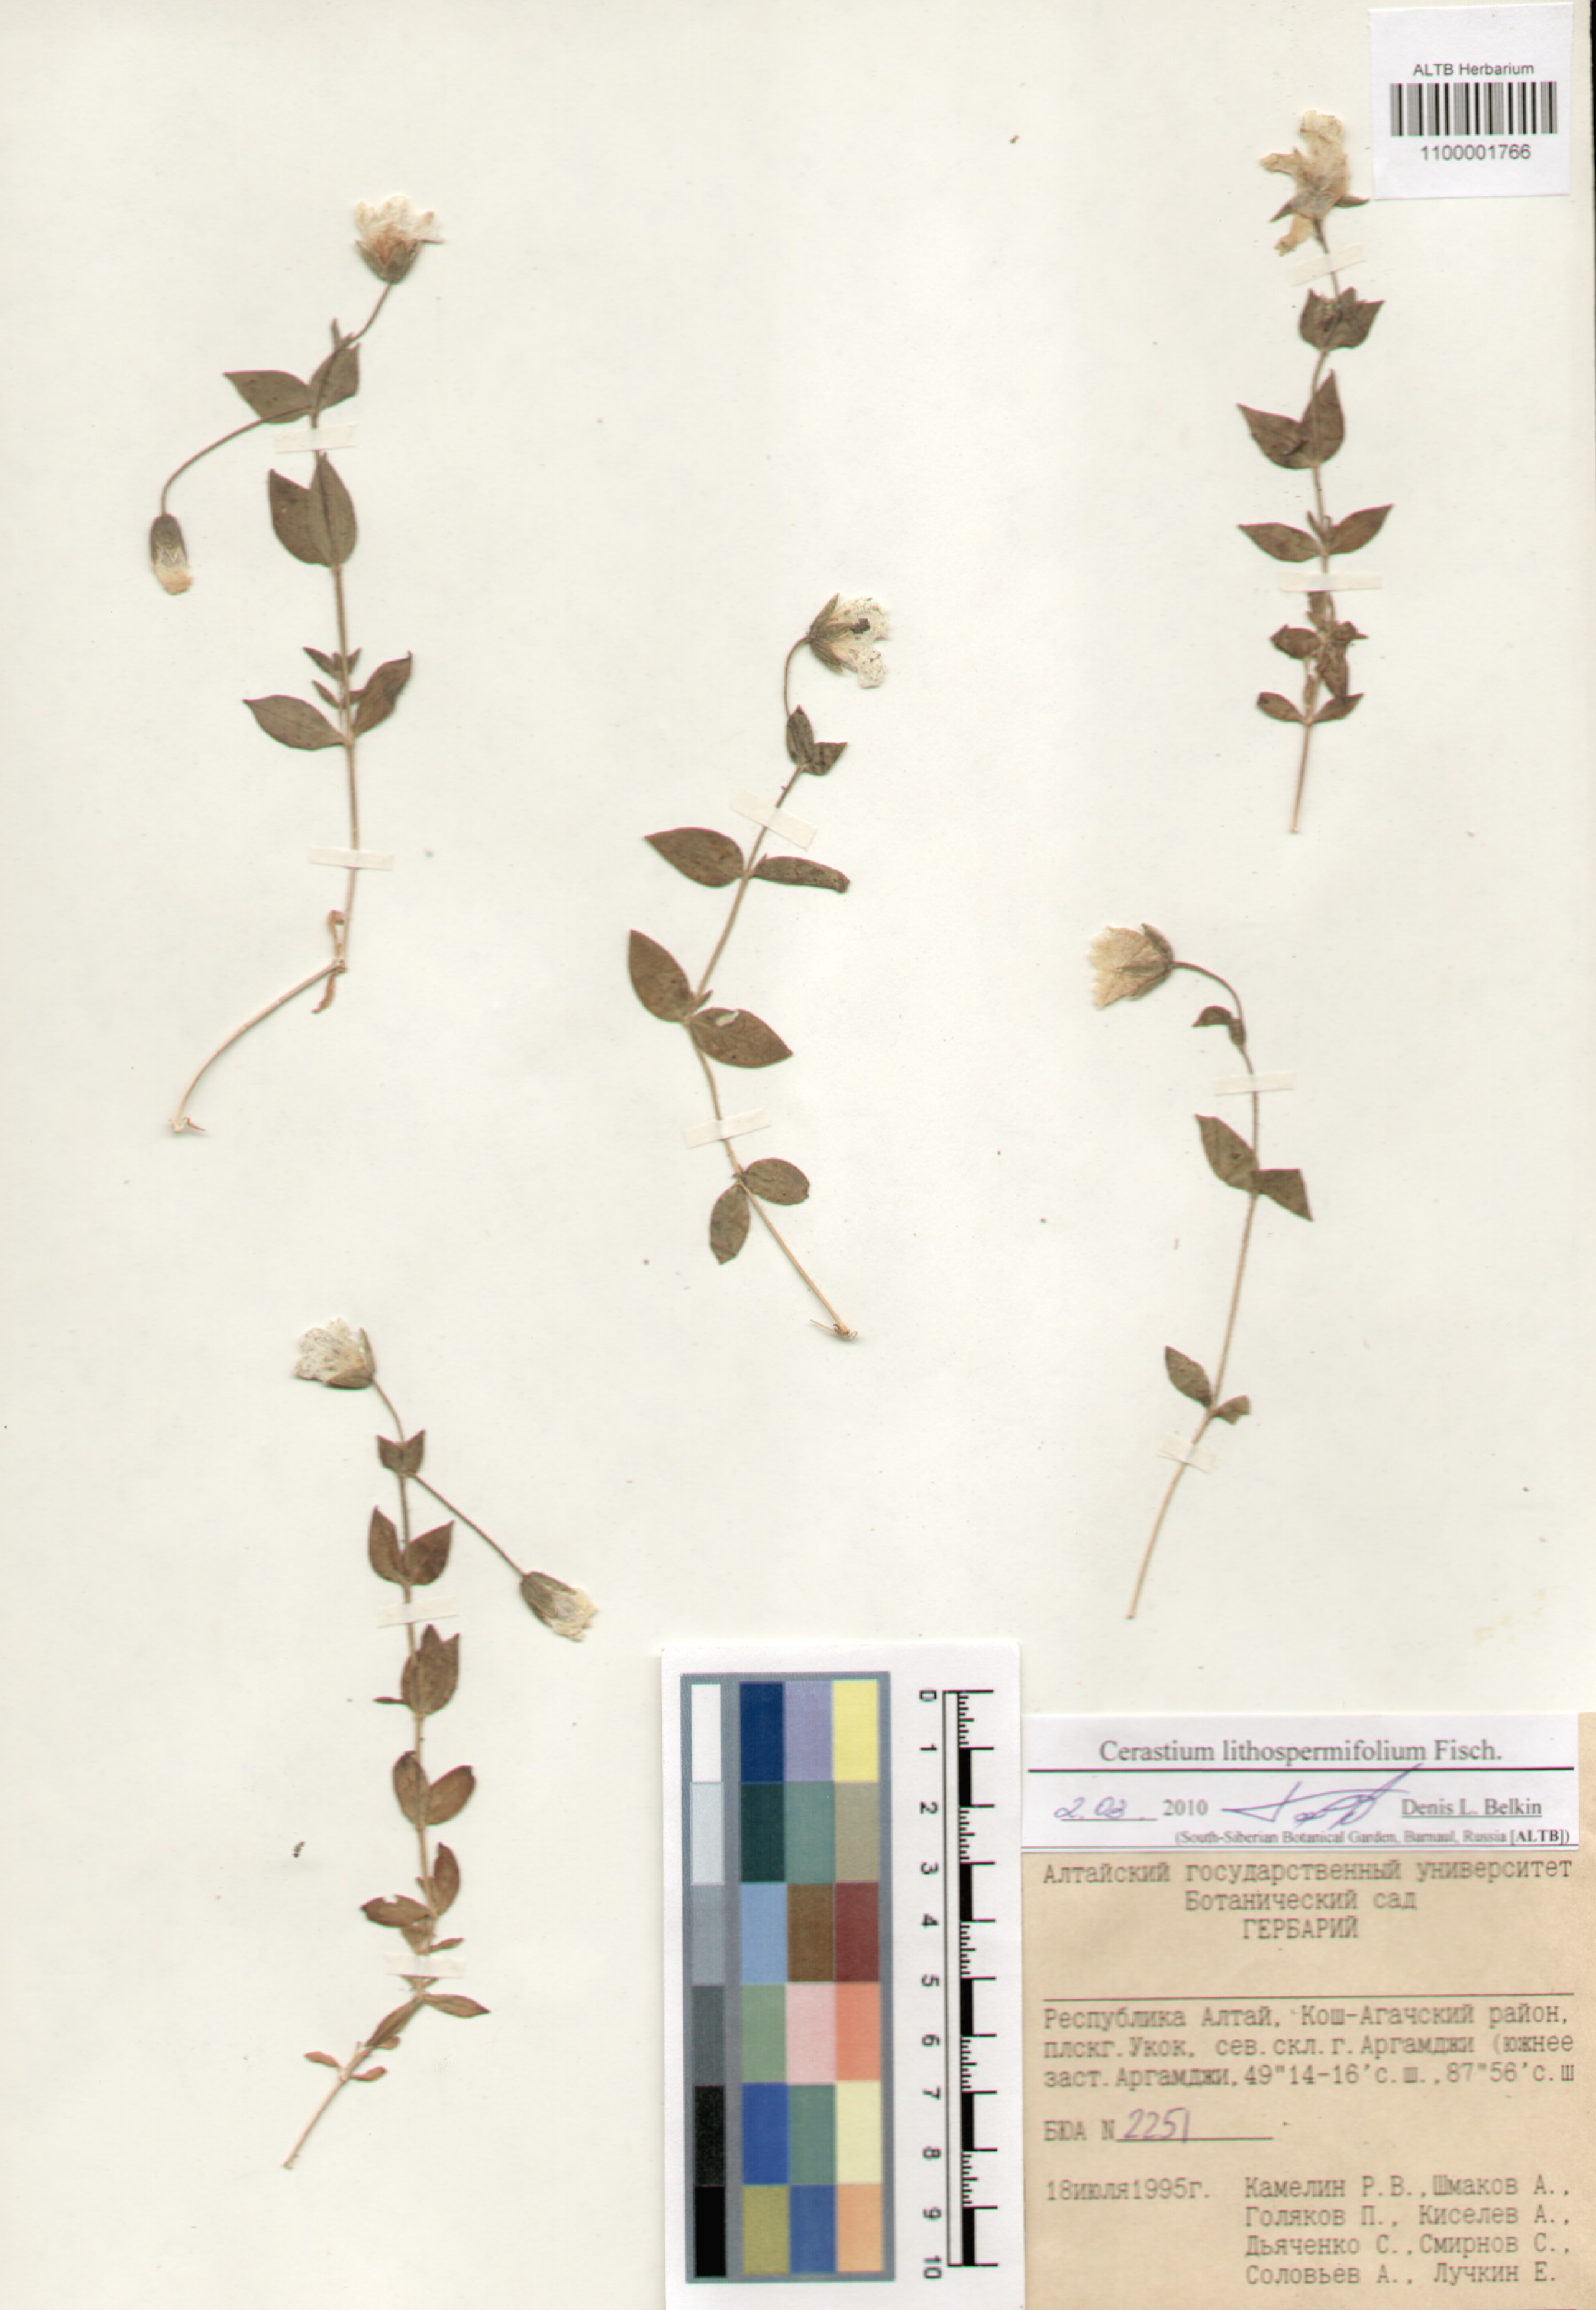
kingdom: Plantae
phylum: Tracheophyta
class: Magnoliopsida
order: Caryophyllales
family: Caryophyllaceae
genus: Cerastium
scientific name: Cerastium lithospermifolium
